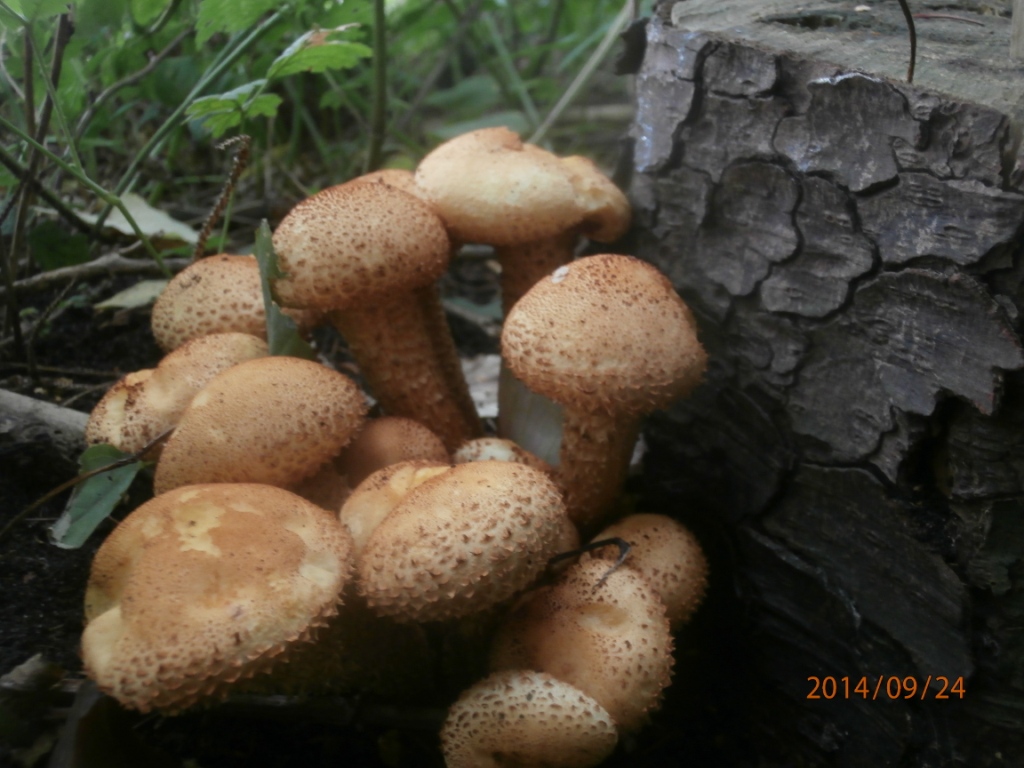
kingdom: Fungi
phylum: Basidiomycota
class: Agaricomycetes
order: Agaricales
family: Strophariaceae
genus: Pholiota
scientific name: Pholiota squarrosa
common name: krumskællet skælhat
